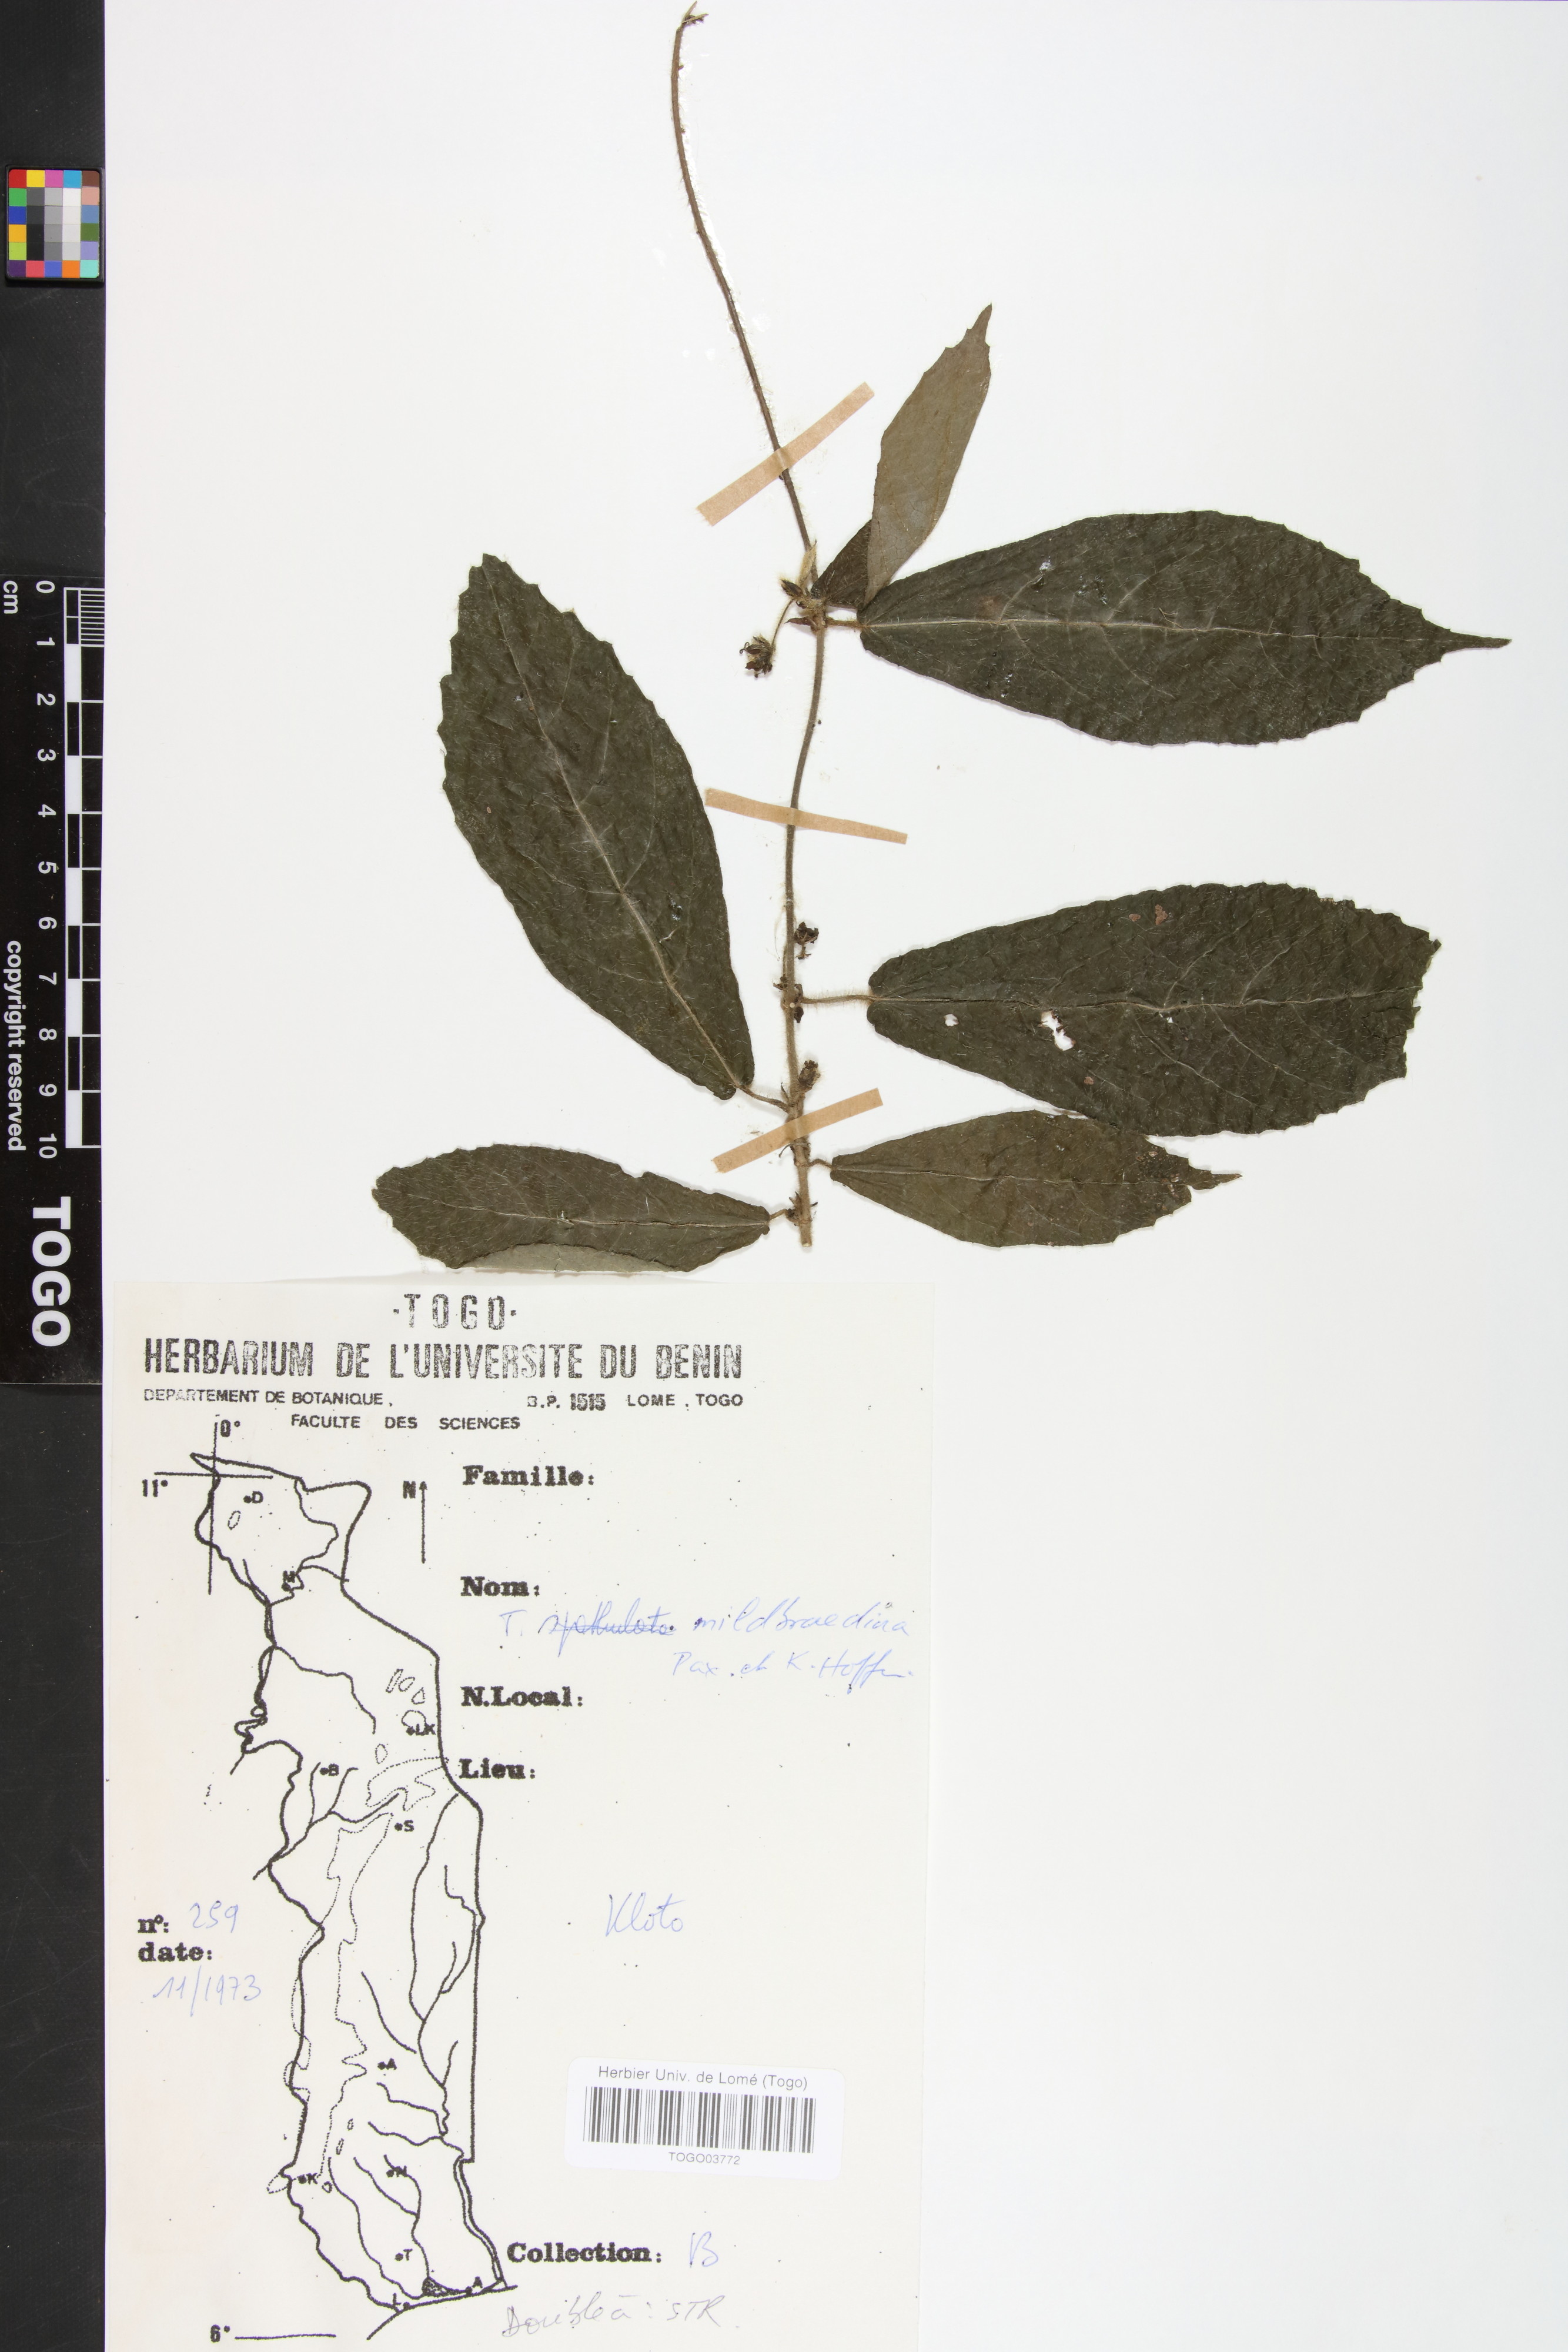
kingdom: Plantae
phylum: Tracheophyta
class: Magnoliopsida
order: Malpighiales
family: Euphorbiaceae
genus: Tragia
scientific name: Tragia mildbraediana
